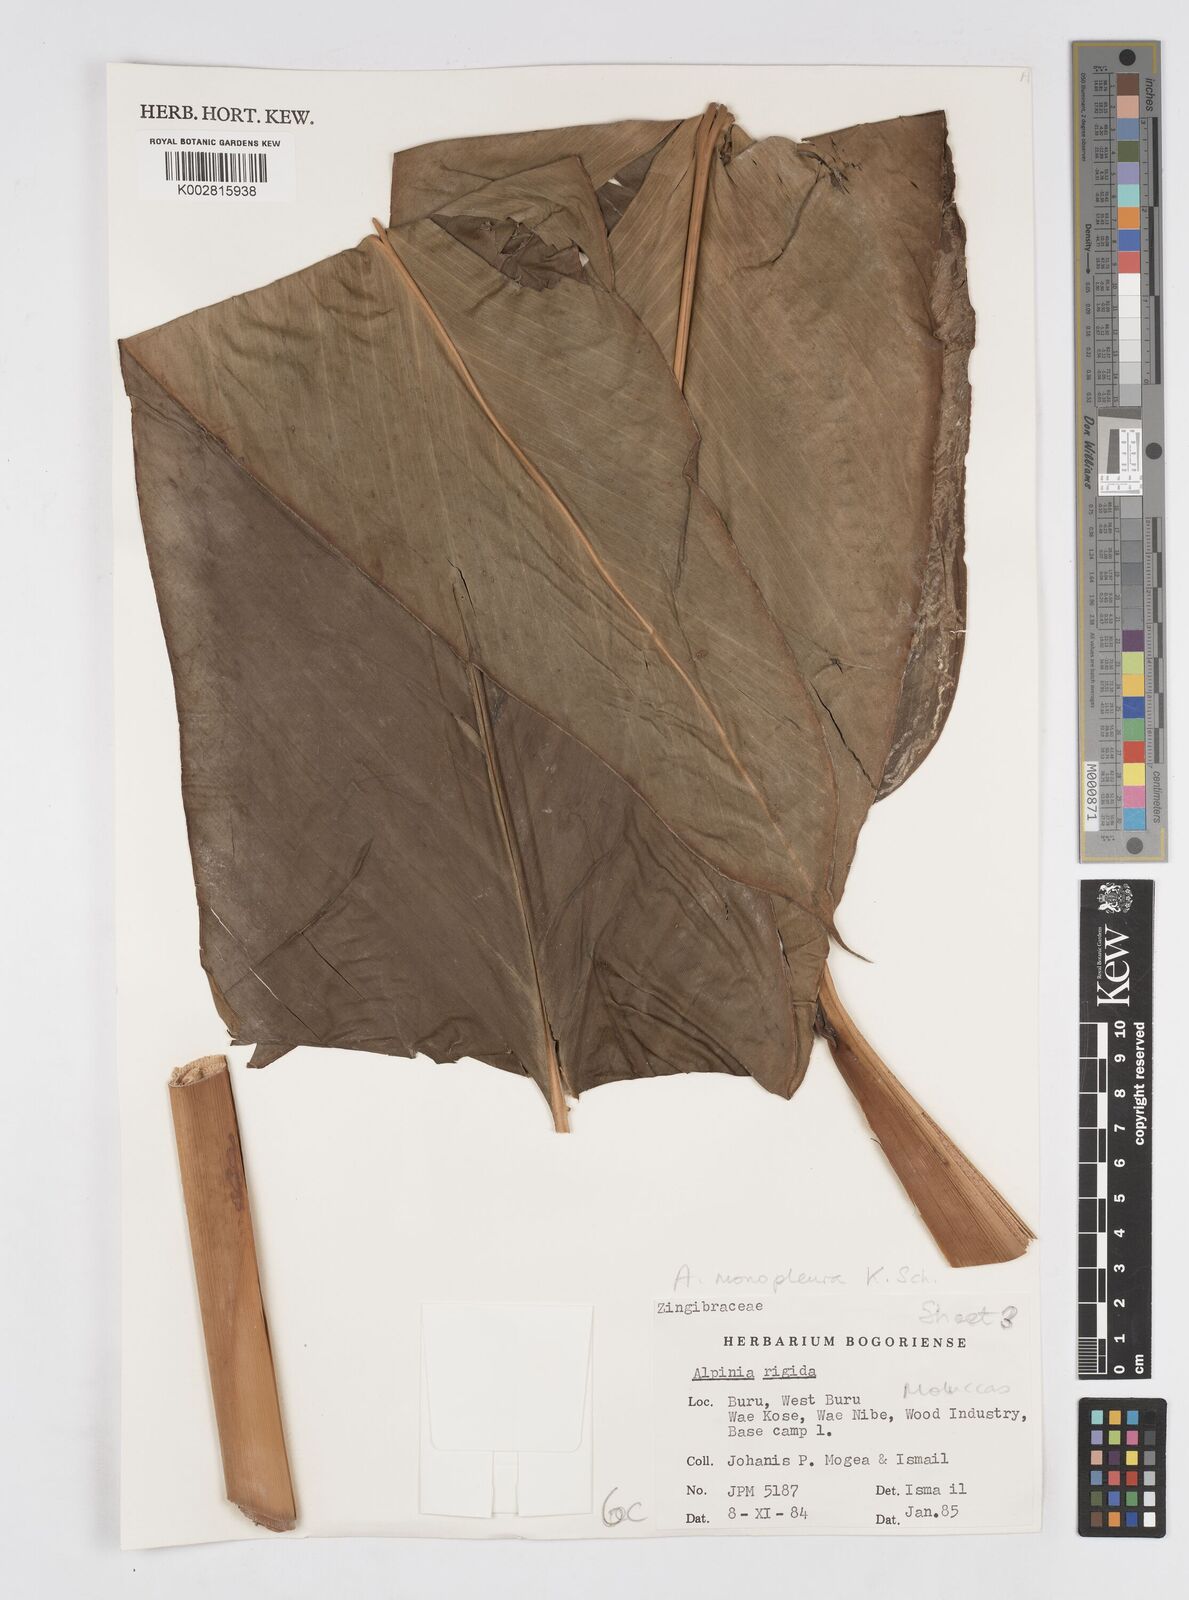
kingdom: Plantae
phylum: Tracheophyta
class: Liliopsida
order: Zingiberales
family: Zingiberaceae
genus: Alpinia
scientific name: Alpinia monopleura
